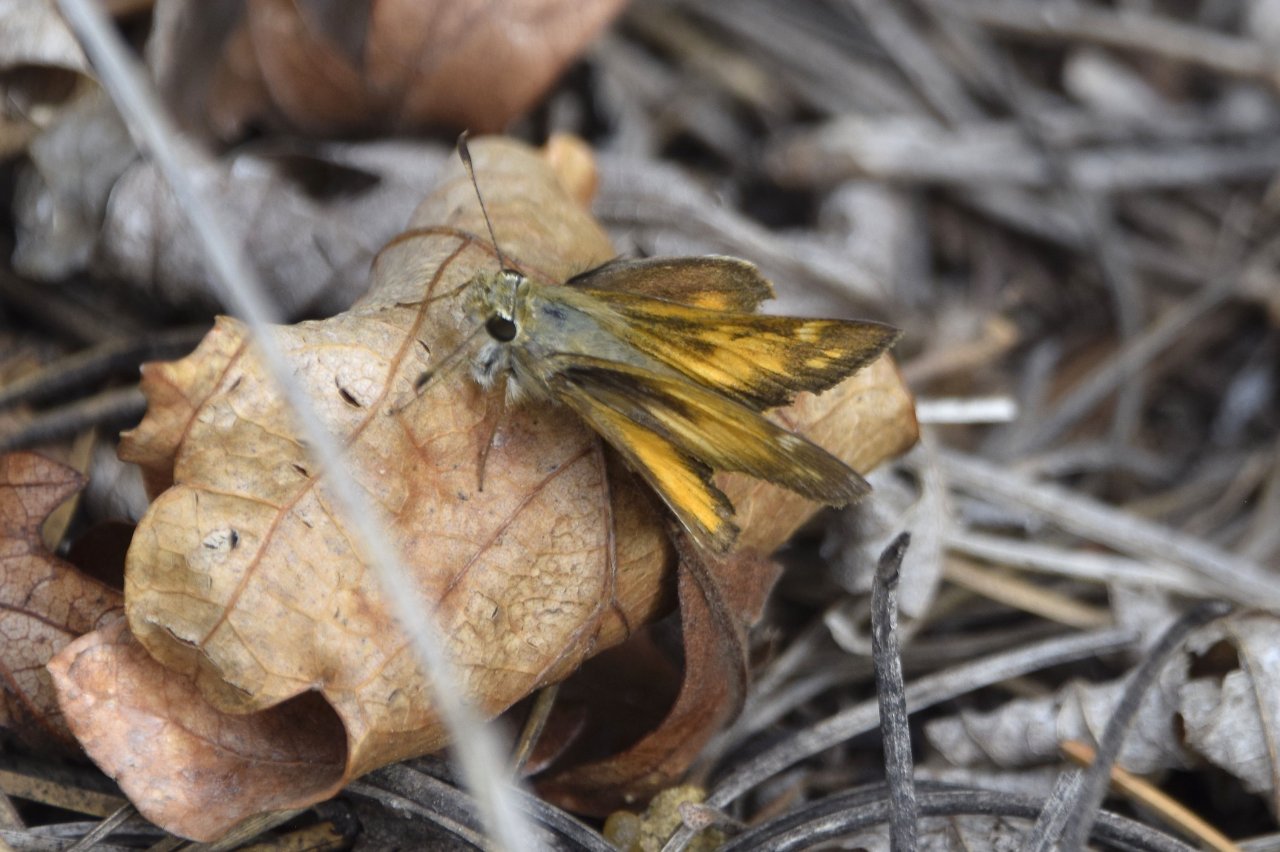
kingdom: Animalia
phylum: Arthropoda
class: Insecta
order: Lepidoptera
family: Hesperiidae
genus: Lon
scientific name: Lon taxiles
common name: Taxiles Skipper
